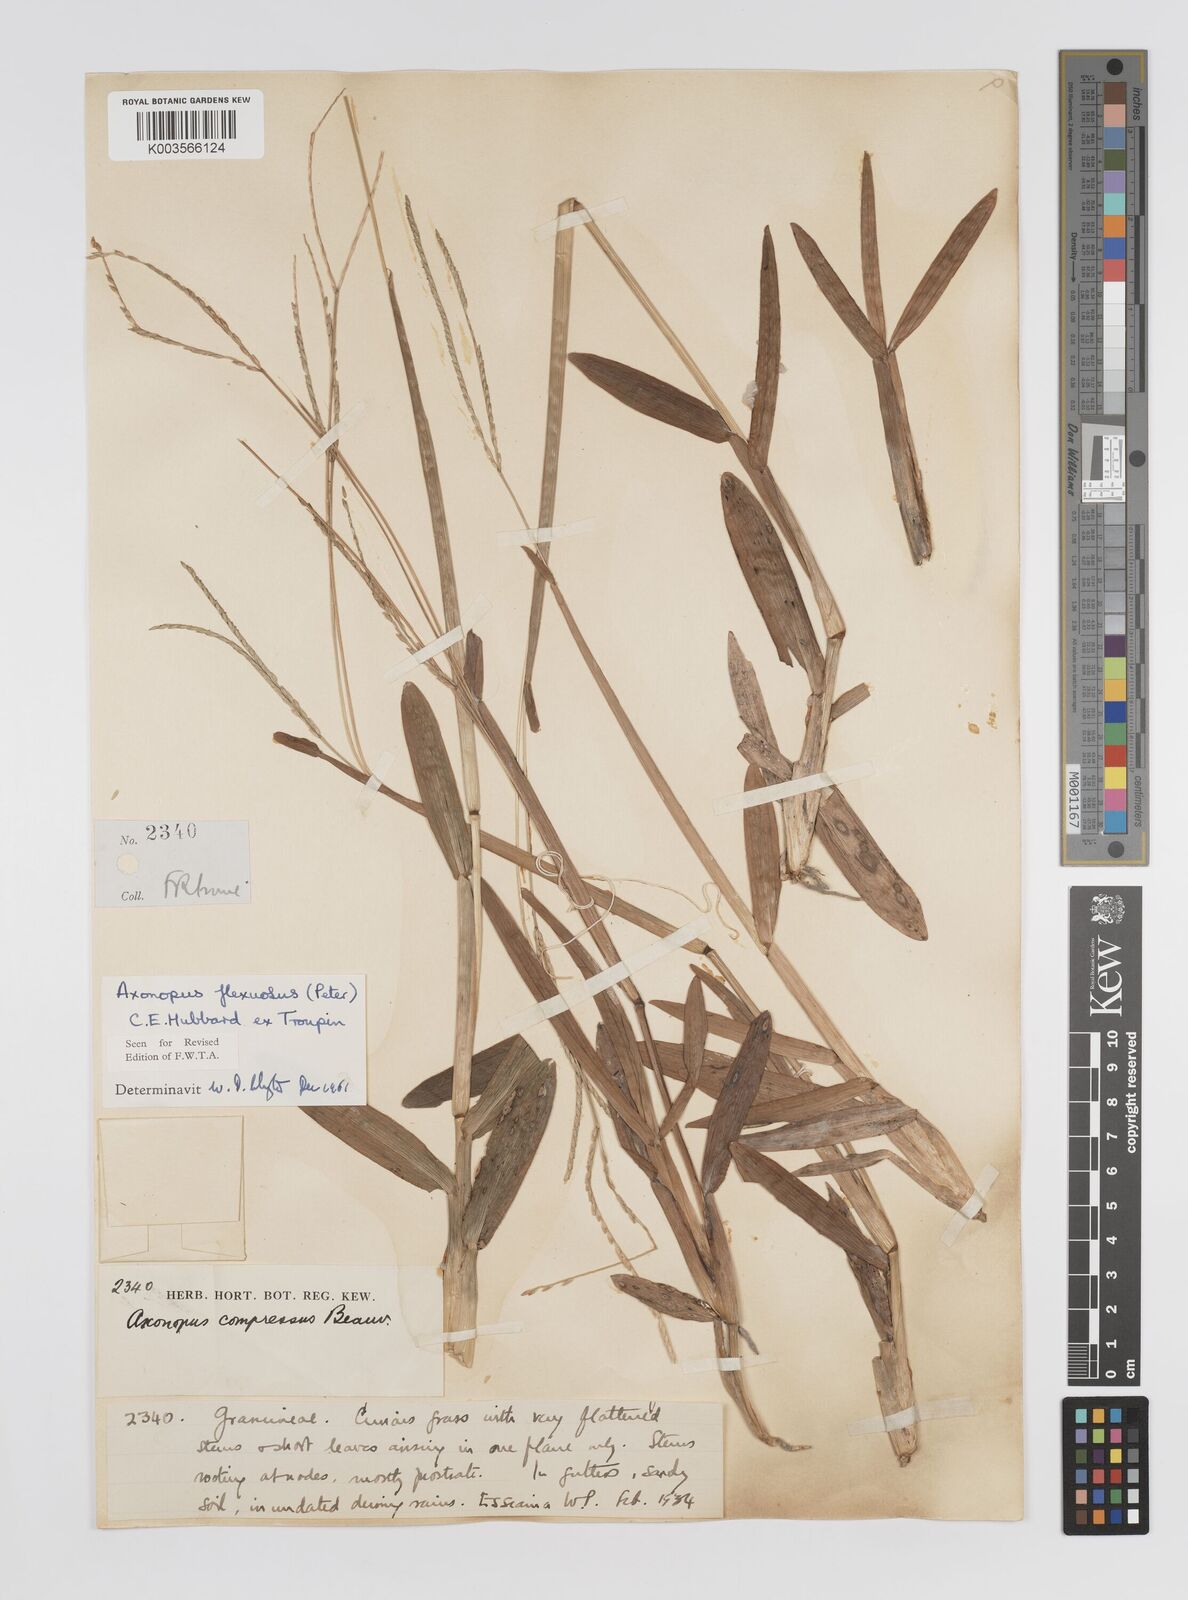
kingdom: Plantae
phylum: Tracheophyta
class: Liliopsida
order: Poales
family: Poaceae
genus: Axonopus
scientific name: Axonopus flexuosus
